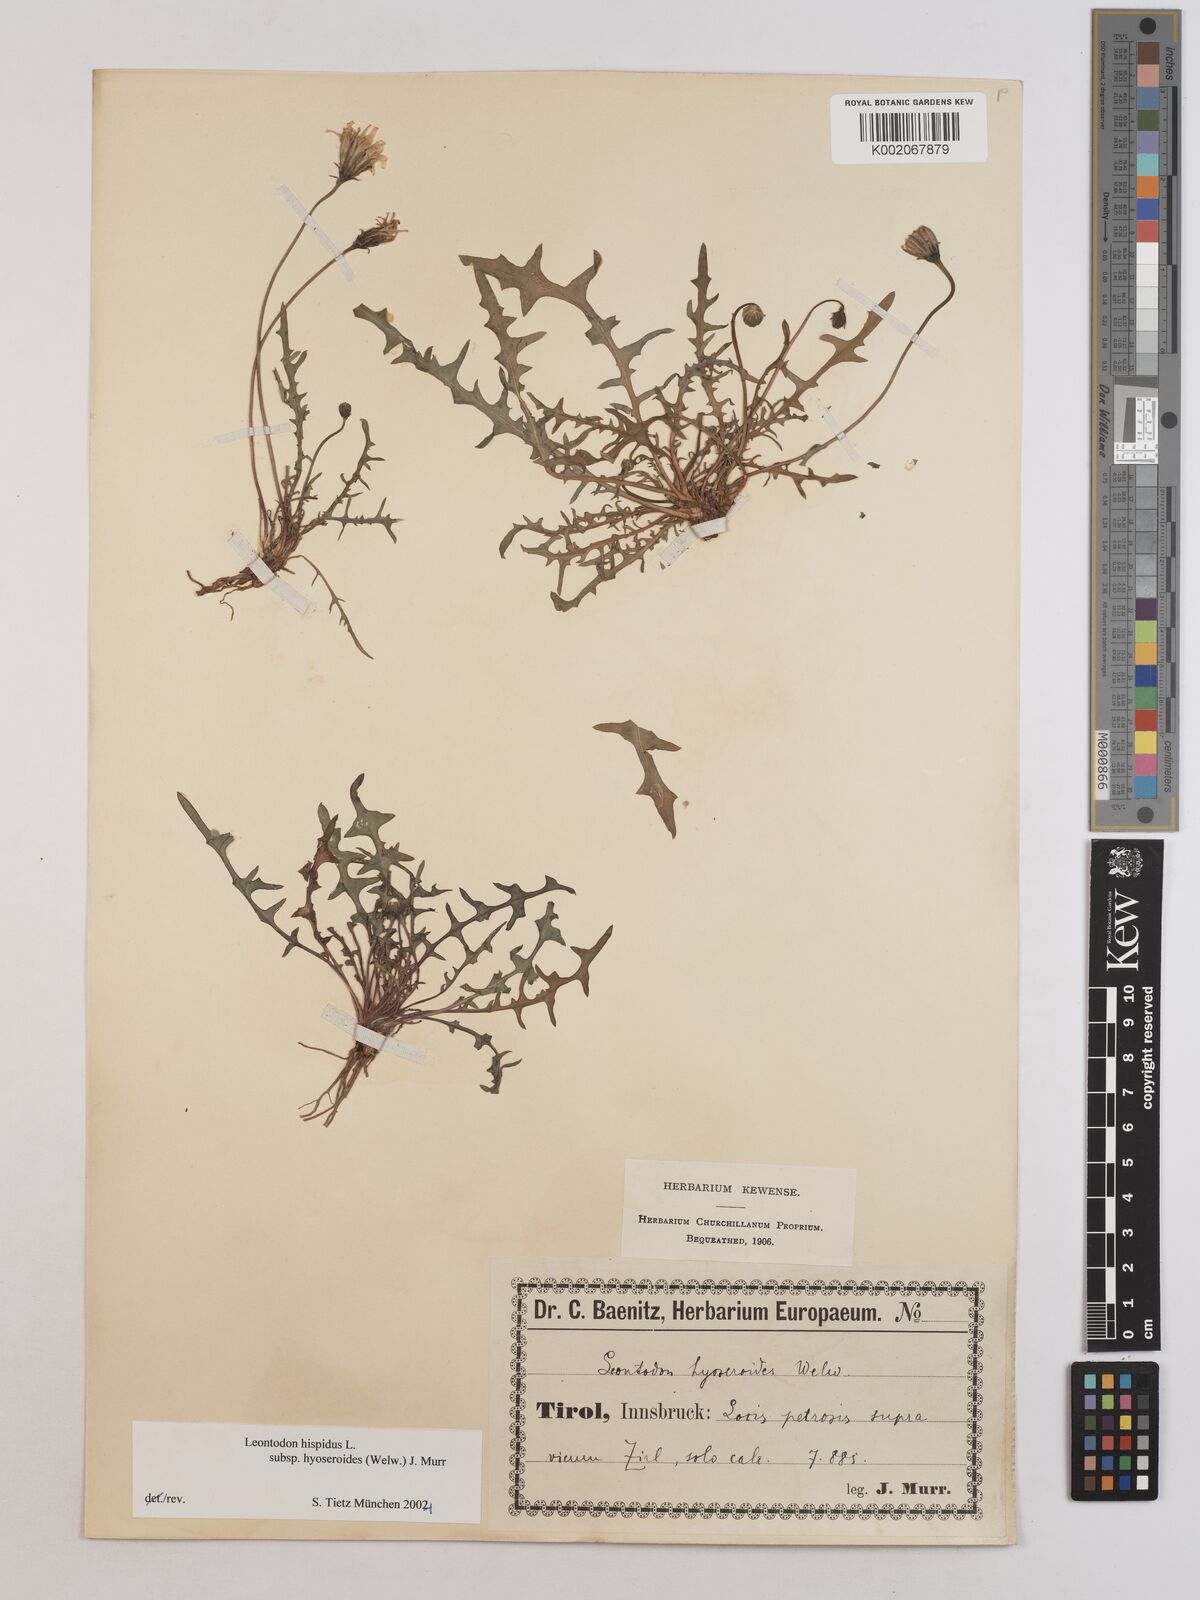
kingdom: Plantae
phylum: Tracheophyta
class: Magnoliopsida
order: Asterales
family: Asteraceae
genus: Leontodon
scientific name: Leontodon hispidus
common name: Rough hawkbit
